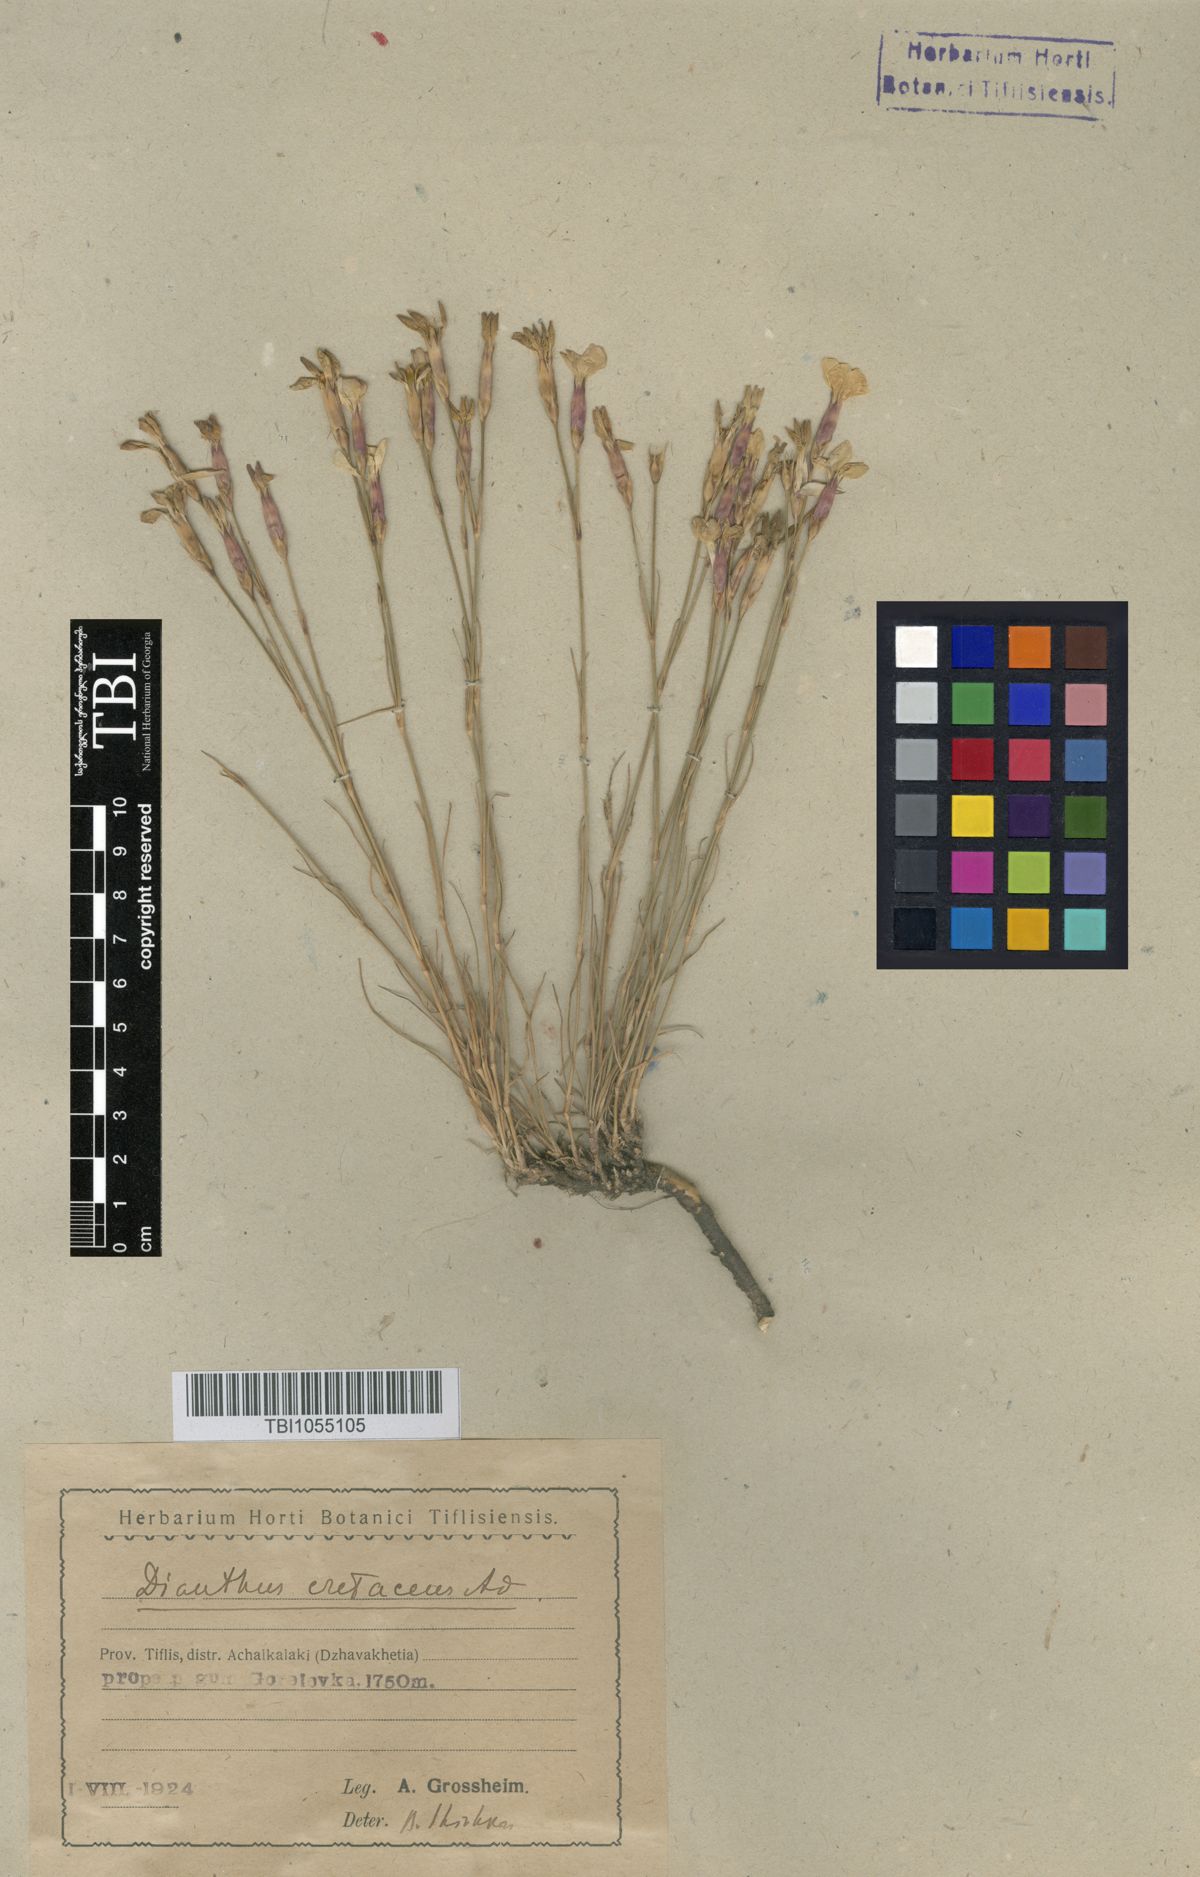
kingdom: Plantae
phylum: Tracheophyta
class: Magnoliopsida
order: Caryophyllales
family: Caryophyllaceae
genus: Dianthus
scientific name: Dianthus cretaceus
